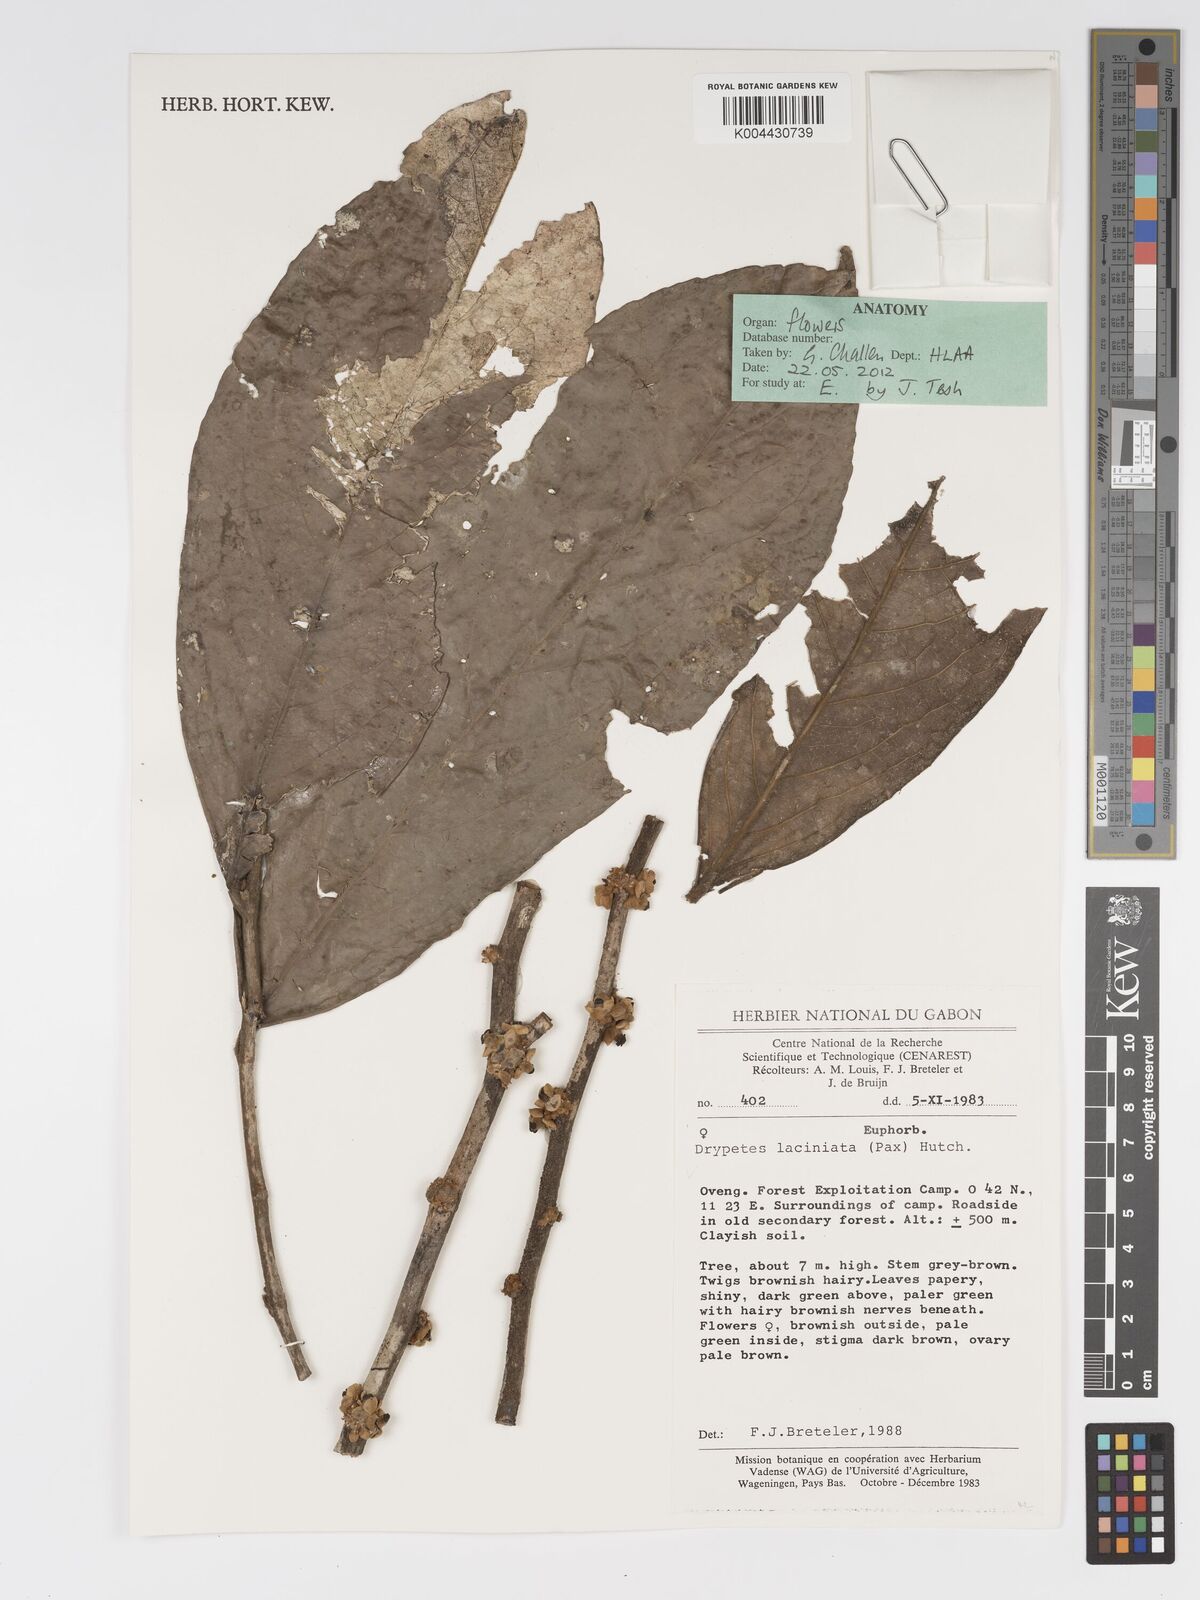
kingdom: Plantae
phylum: Tracheophyta
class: Magnoliopsida
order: Malpighiales
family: Putranjivaceae
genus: Drypetes
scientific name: Drypetes laciniata
